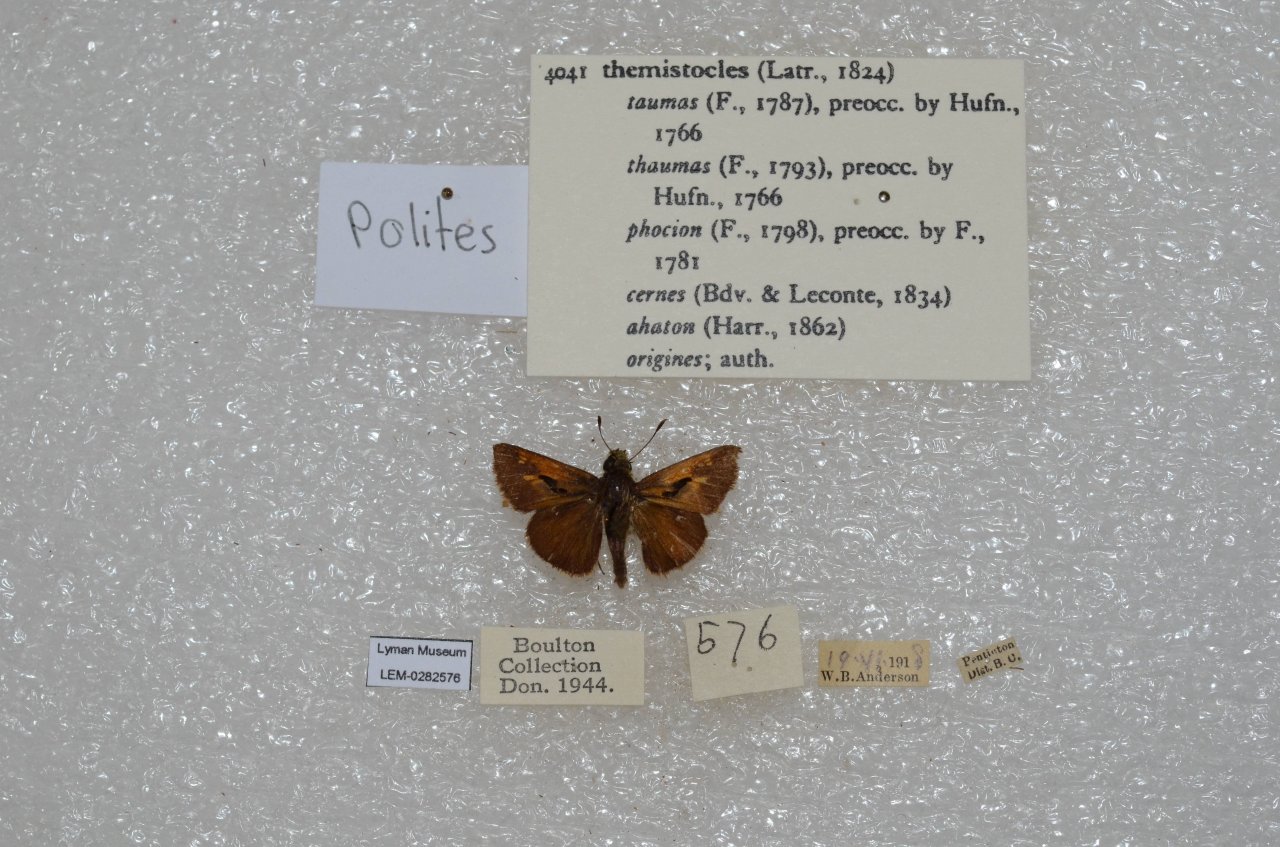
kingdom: Animalia
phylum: Arthropoda
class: Insecta
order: Lepidoptera
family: Hesperiidae
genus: Polites
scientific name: Polites themistocles
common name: Tawny-edged Skipper
